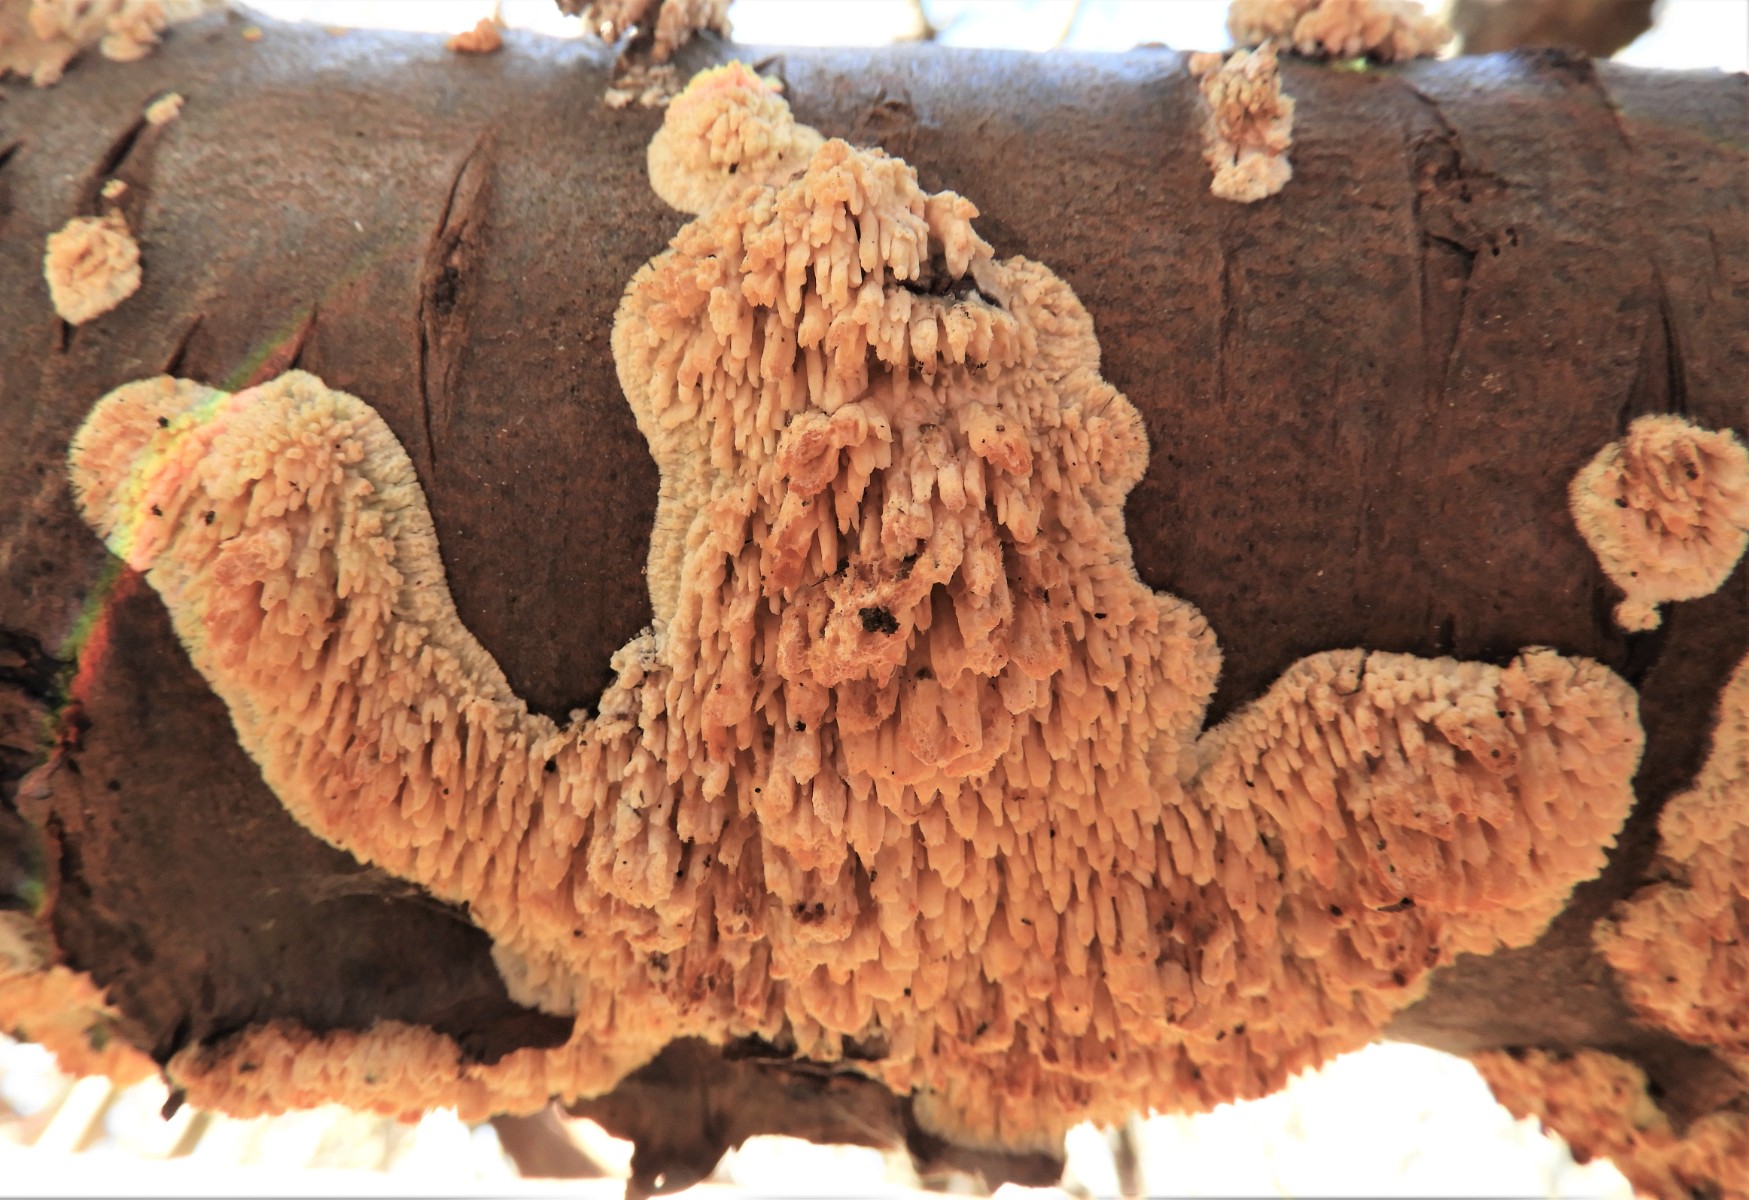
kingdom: Fungi
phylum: Basidiomycota
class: Agaricomycetes
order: Hymenochaetales
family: Schizoporaceae
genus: Xylodon
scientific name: Xylodon radula
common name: grovtandet kalkskind
